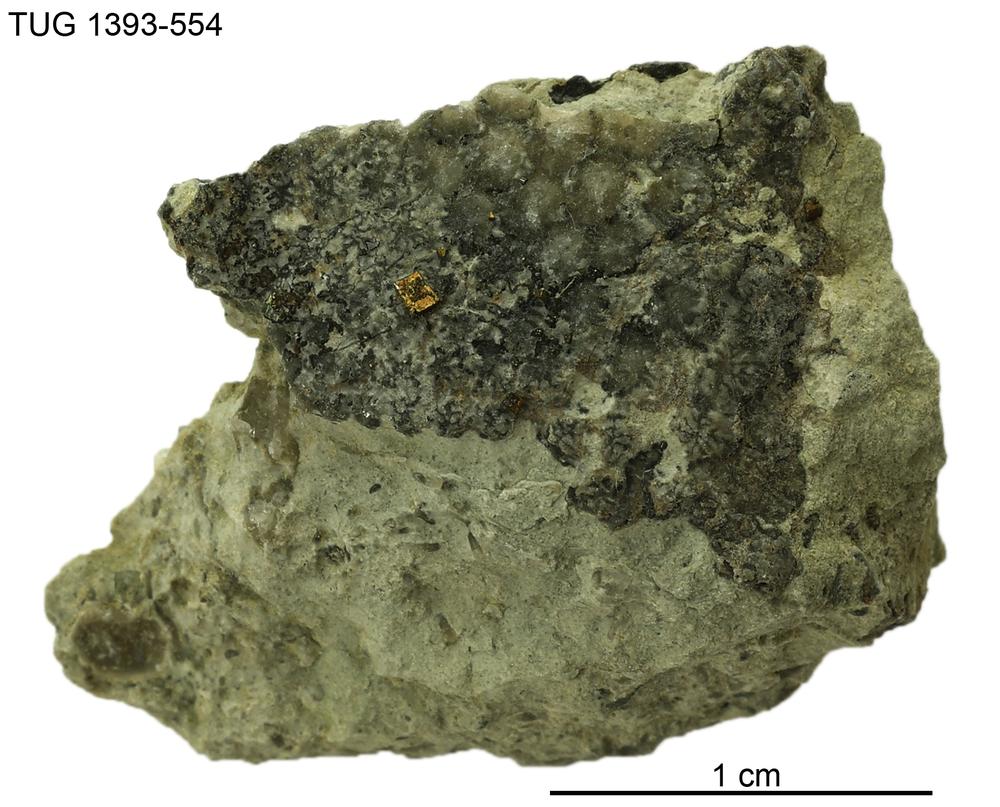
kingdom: Plantae
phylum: Chlorophyta
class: Chlorophyceae
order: Receptaculitales
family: Receptaculitaceae
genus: Receptaculites
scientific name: Receptaculites
